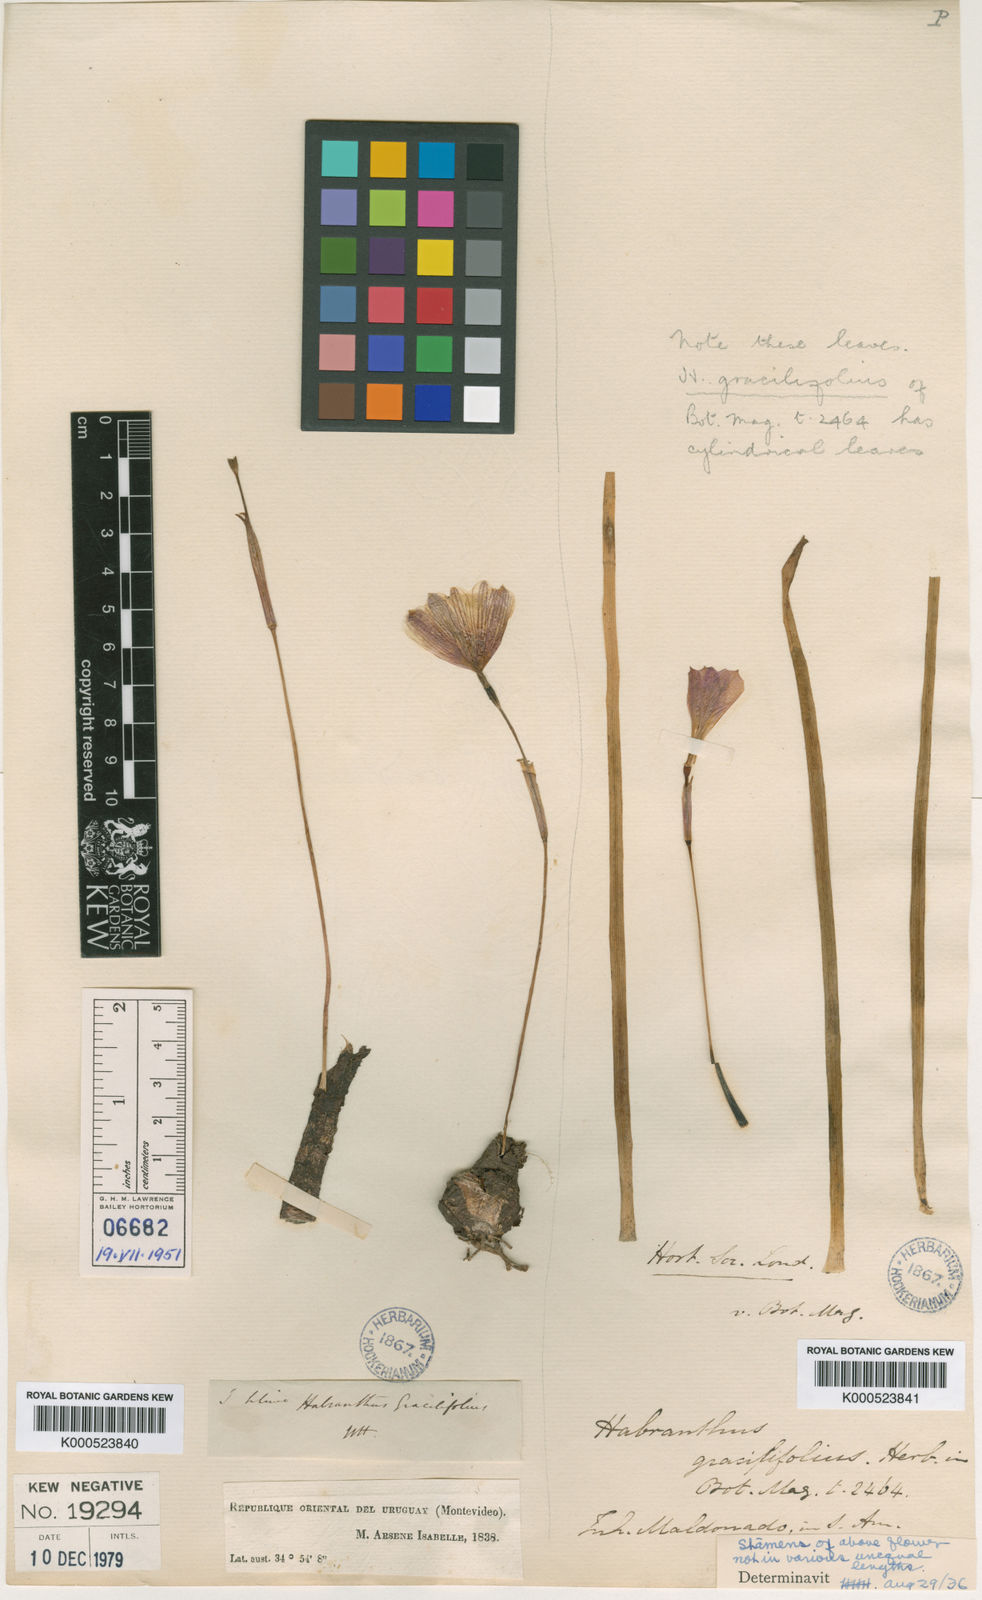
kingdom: Plantae
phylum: Tracheophyta
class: Liliopsida
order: Asparagales
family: Amaryllidaceae
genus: Zephyranthes
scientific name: Zephyranthes
